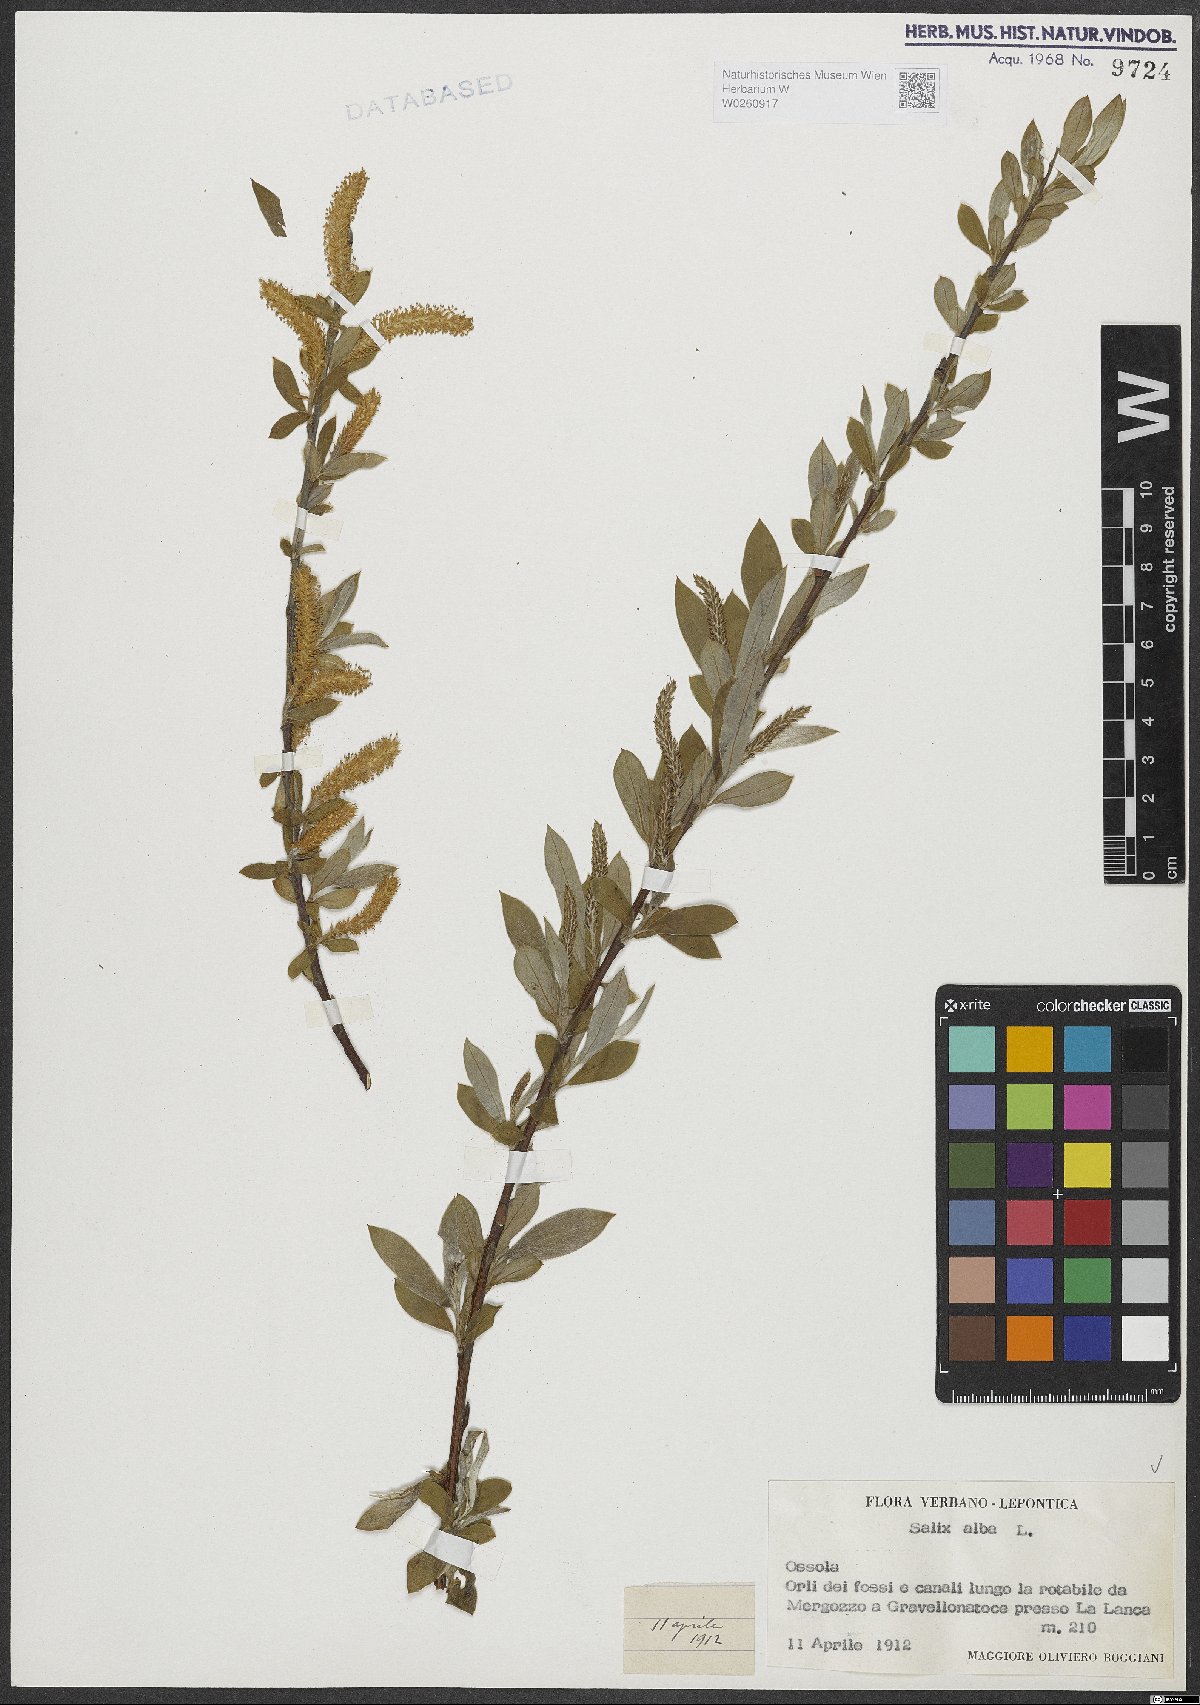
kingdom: Plantae
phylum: Tracheophyta
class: Magnoliopsida
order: Malpighiales
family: Salicaceae
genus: Salix
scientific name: Salix alba
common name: White willow
